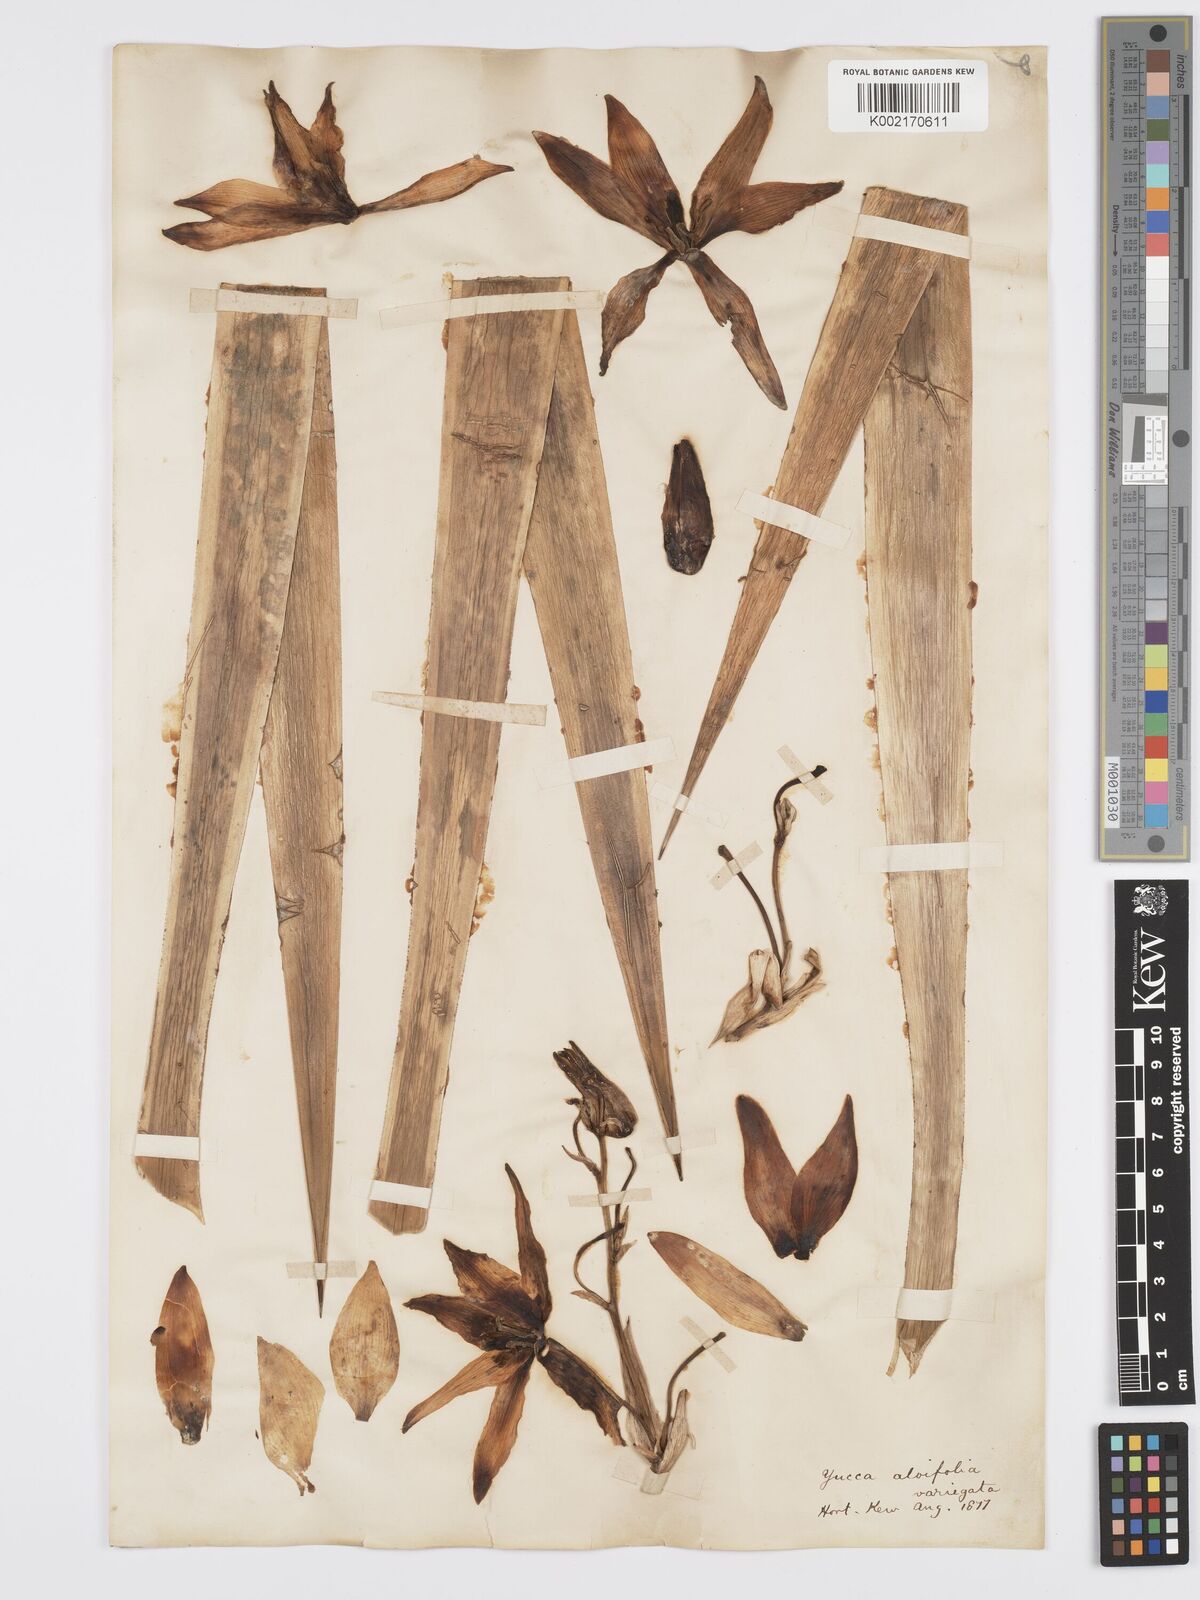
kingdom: Plantae
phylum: Tracheophyta
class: Liliopsida
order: Asparagales
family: Asparagaceae
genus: Yucca
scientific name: Yucca aloifolia
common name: Aloe yucca
